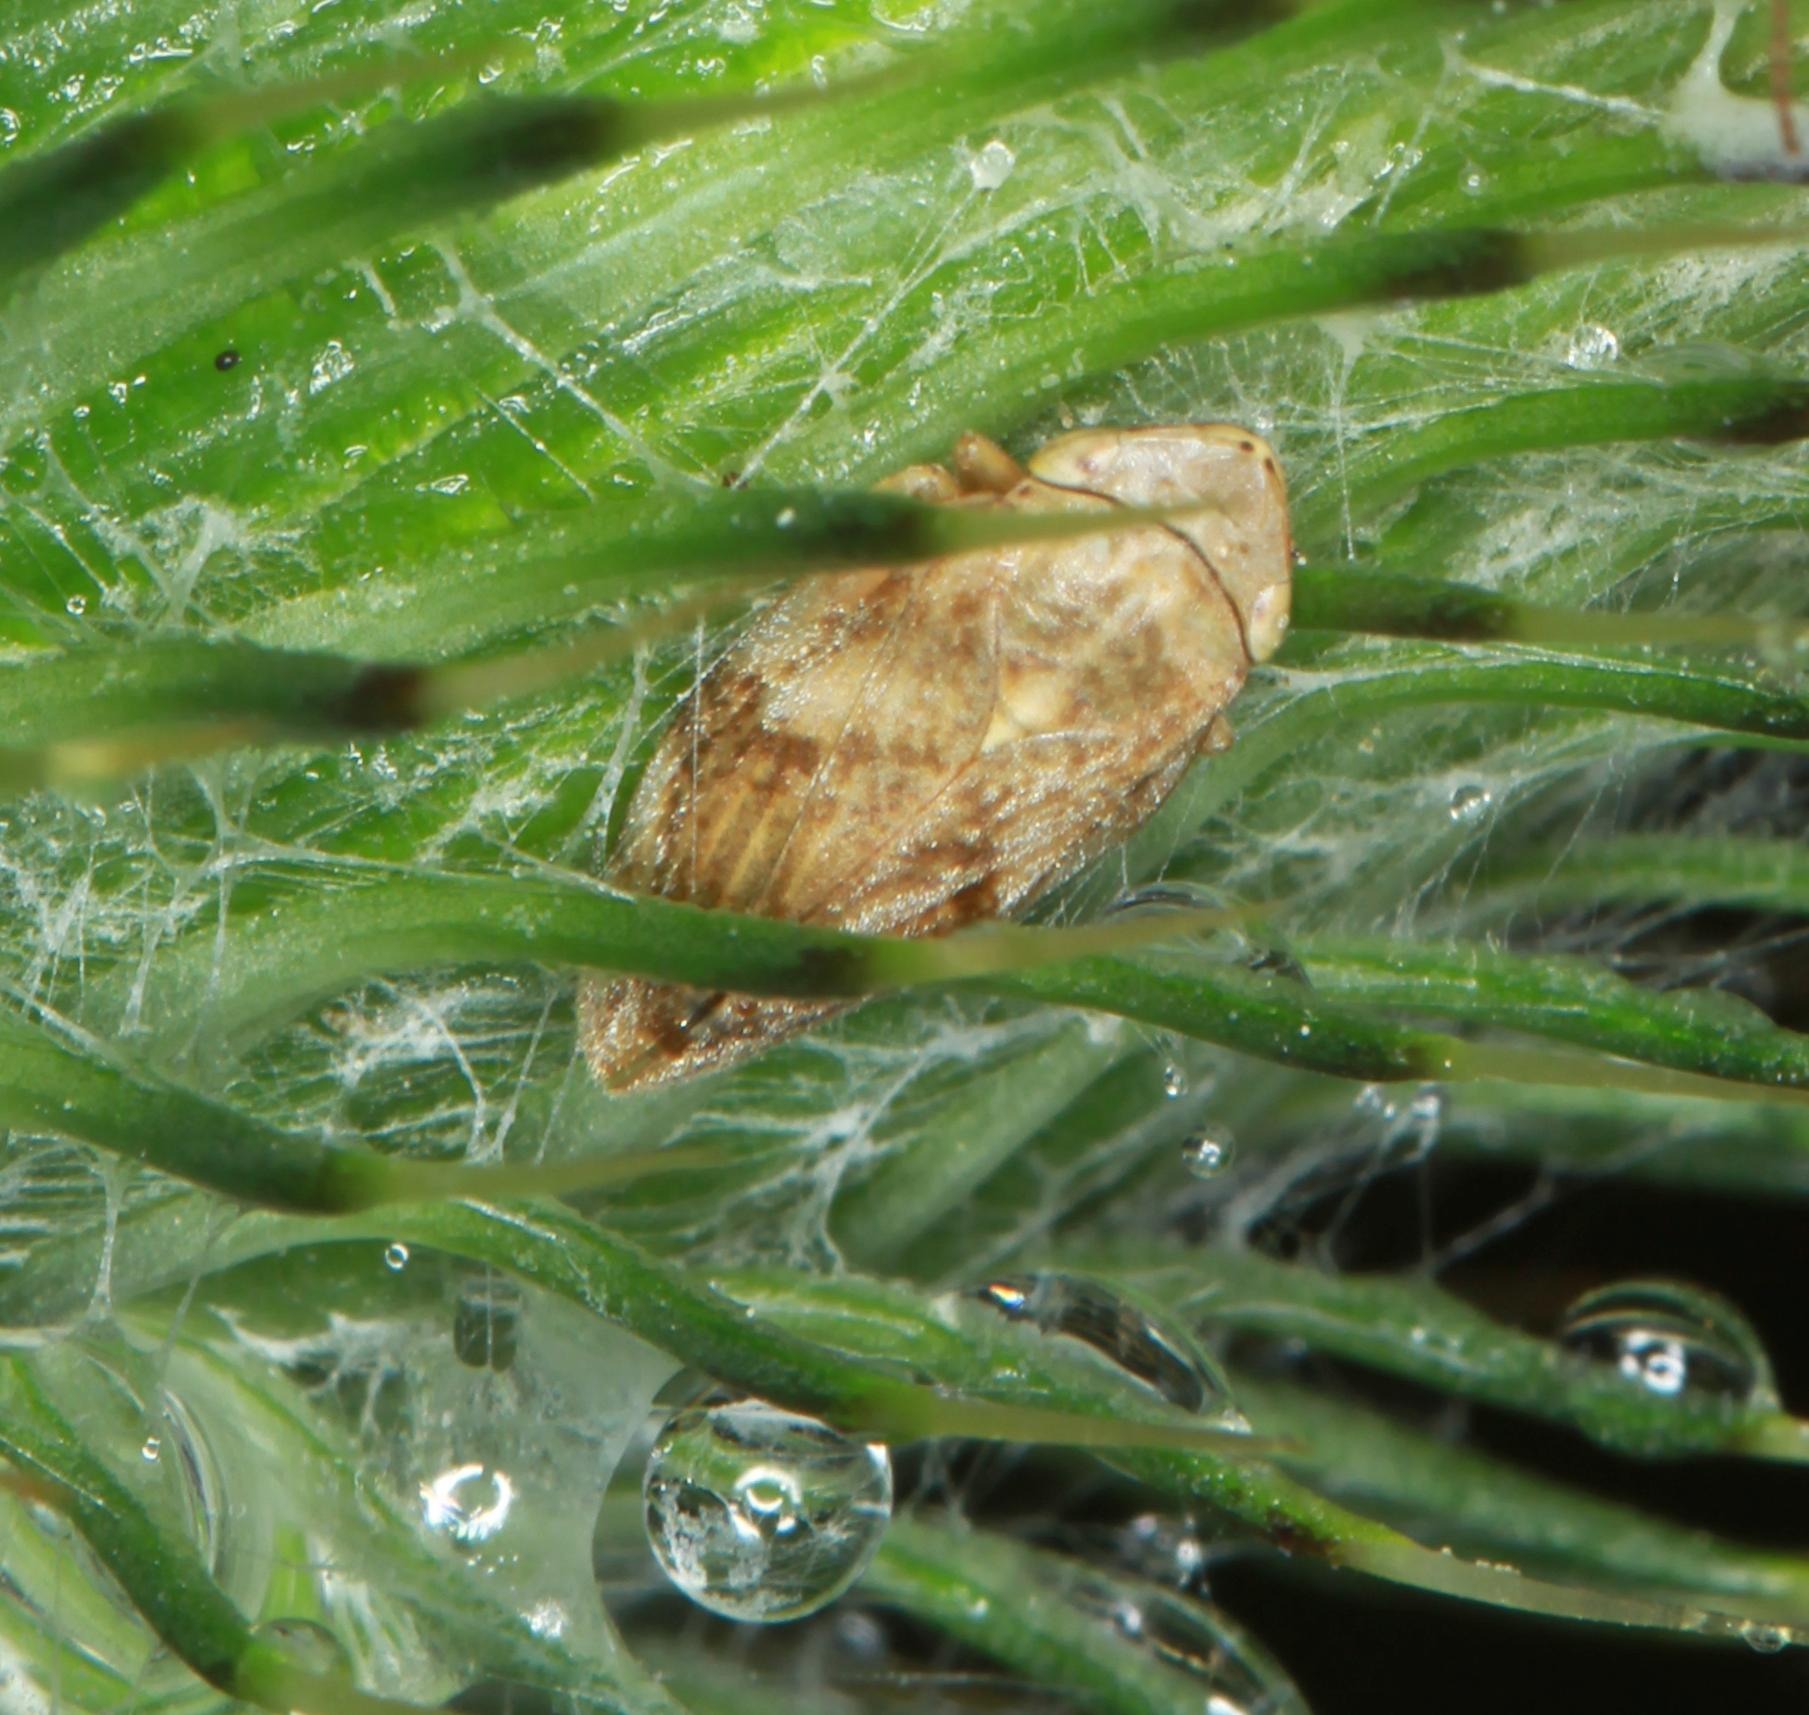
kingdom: Animalia
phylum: Arthropoda
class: Insecta
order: Hemiptera
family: Aphrophoridae
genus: Philaenus
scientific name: Philaenus spumarius
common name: Almindelig skumcikade
